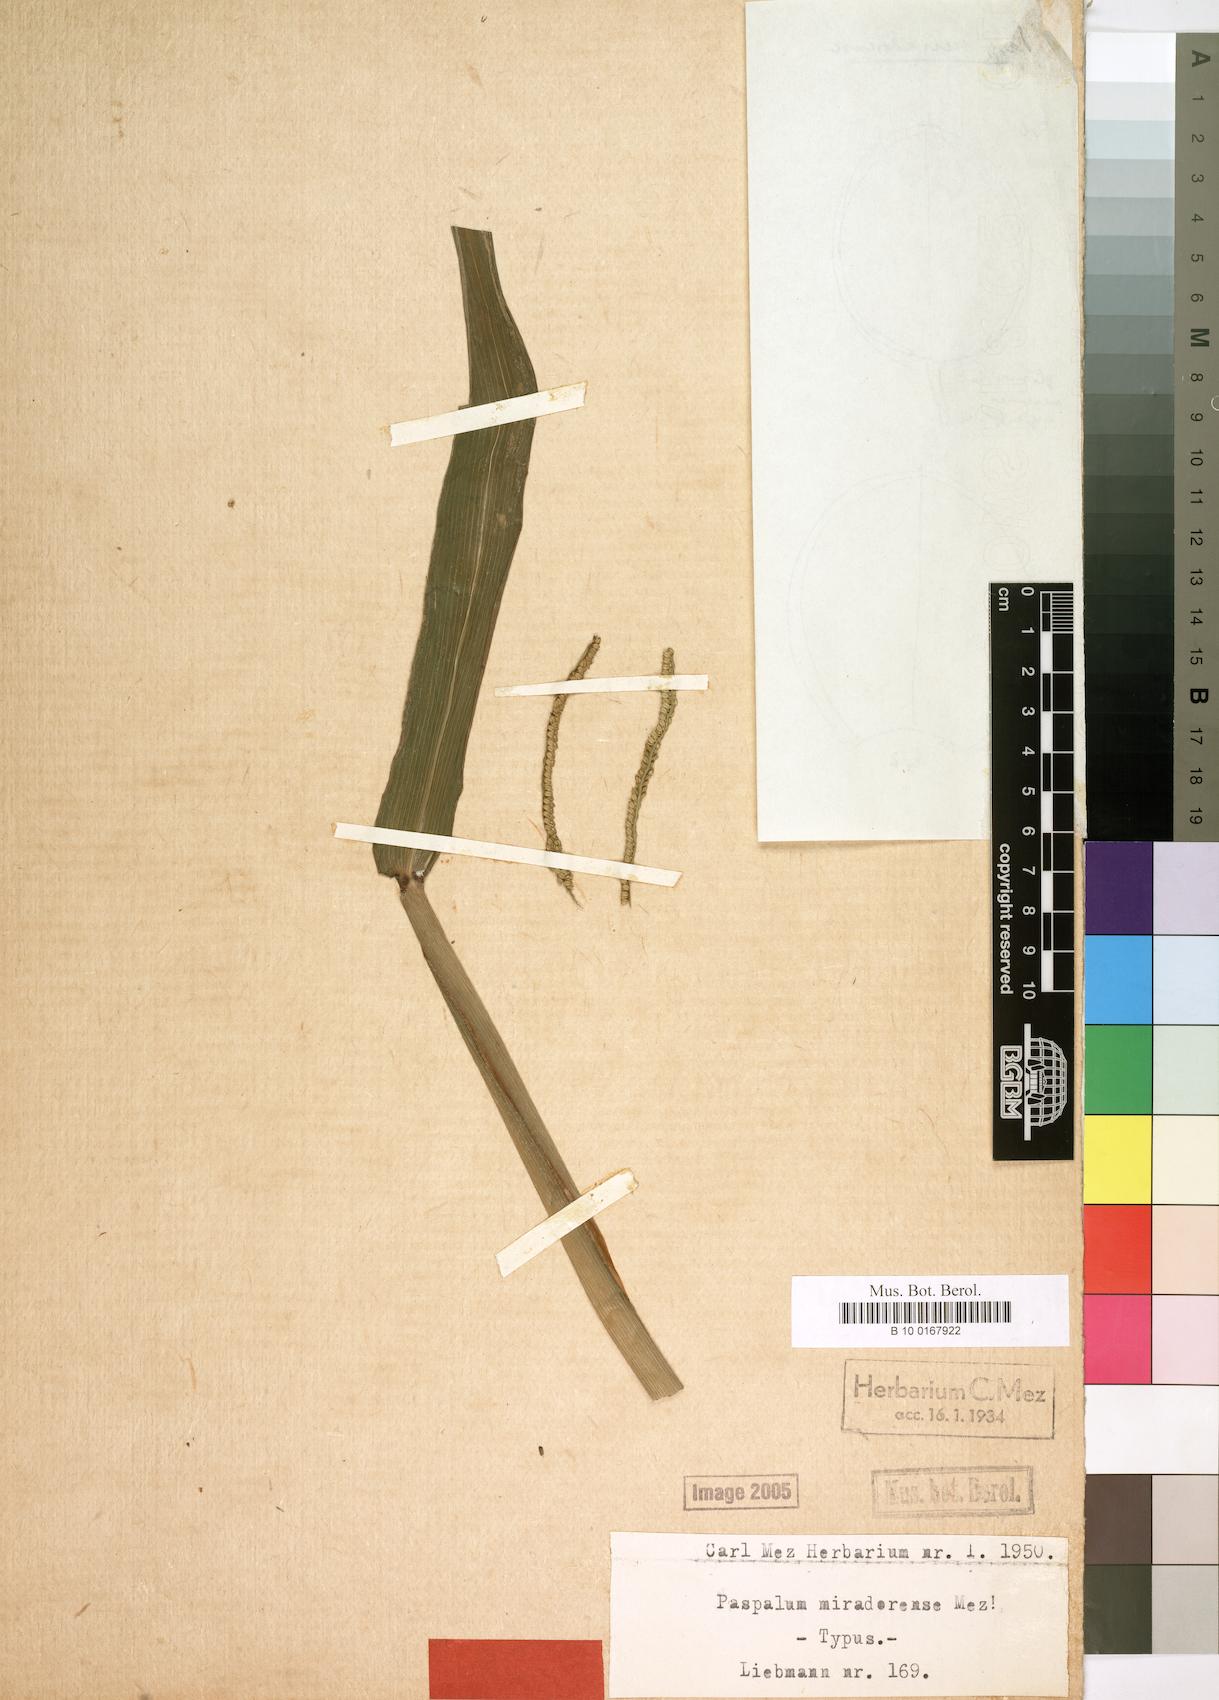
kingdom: Plantae
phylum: Tracheophyta
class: Liliopsida
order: Poales
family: Poaceae
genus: Paspalum
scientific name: Paspalum
